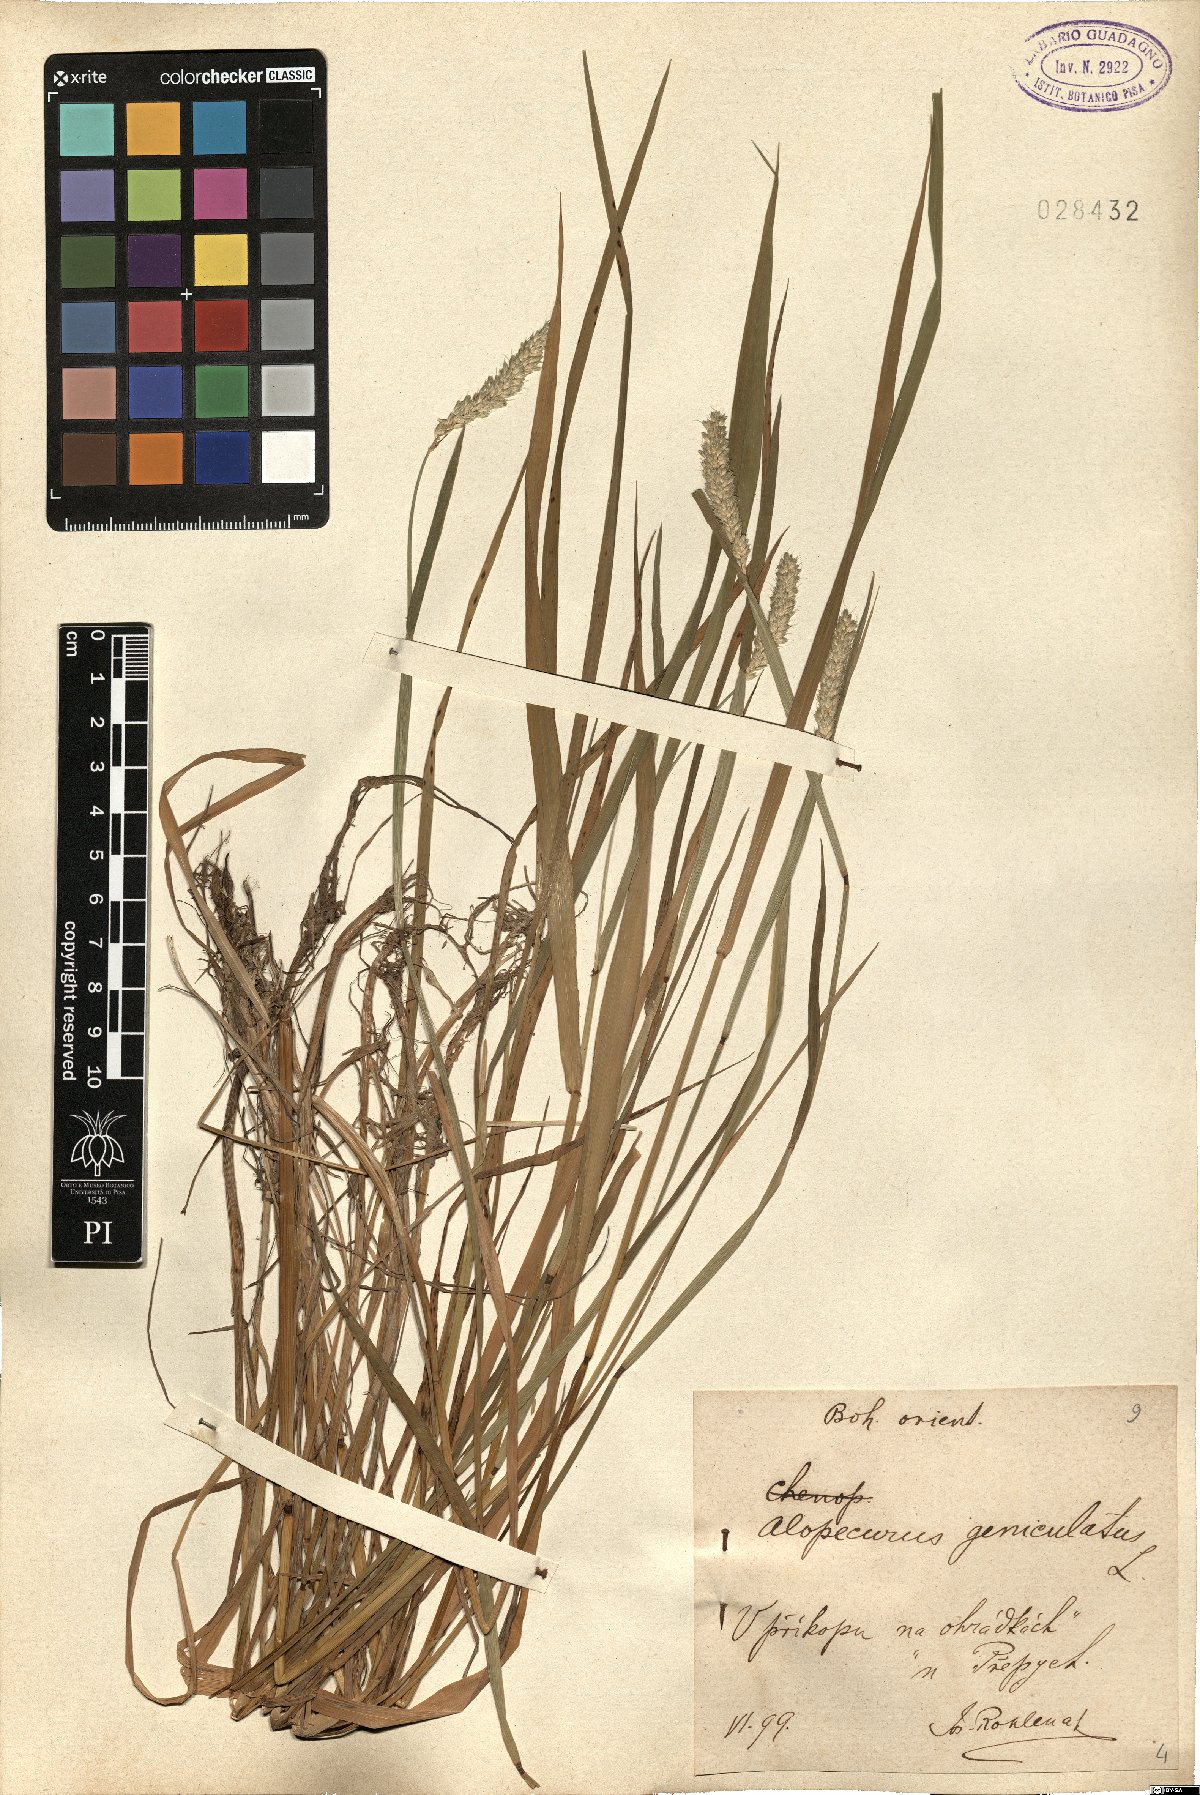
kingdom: Plantae
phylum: Tracheophyta
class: Liliopsida
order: Poales
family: Poaceae
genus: Alopecurus
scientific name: Alopecurus geniculatus
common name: Water foxtail
